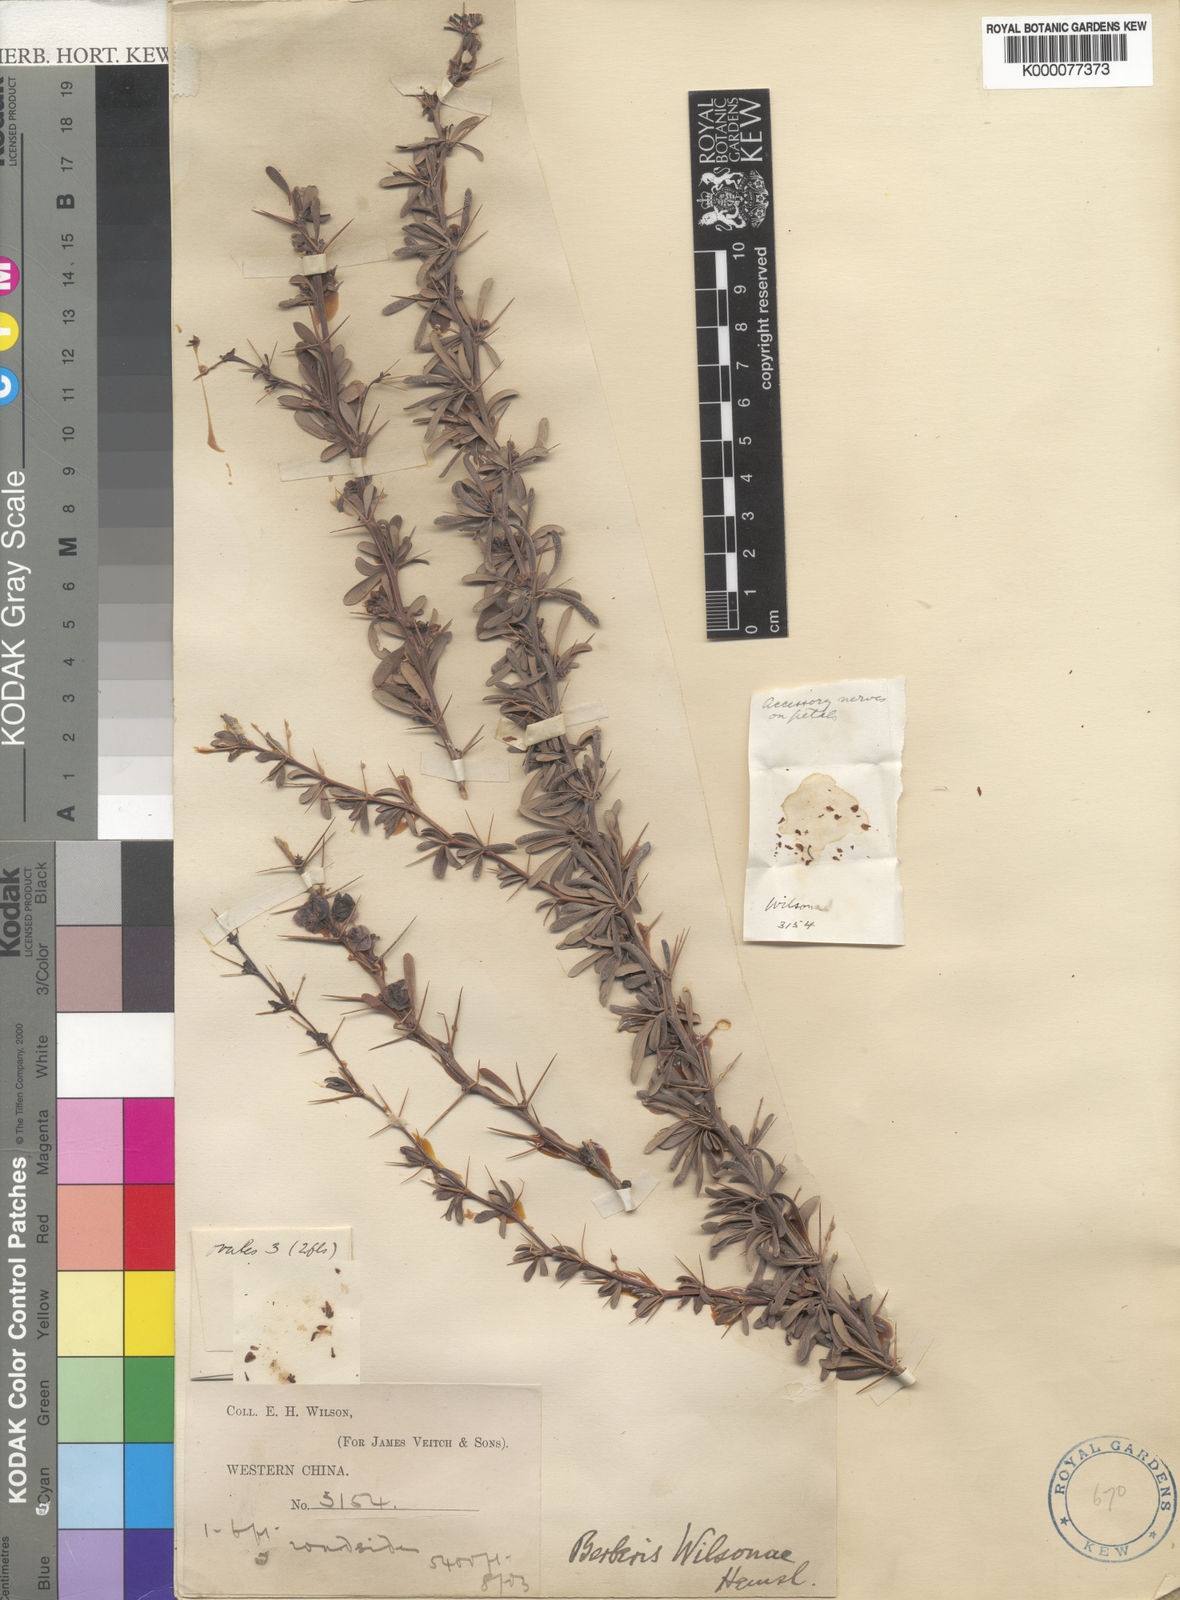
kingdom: Plantae
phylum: Tracheophyta
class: Magnoliopsida
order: Ranunculales
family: Berberidaceae
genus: Berberis
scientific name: Berberis wilsoniae
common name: Mrs wilson's barberry
